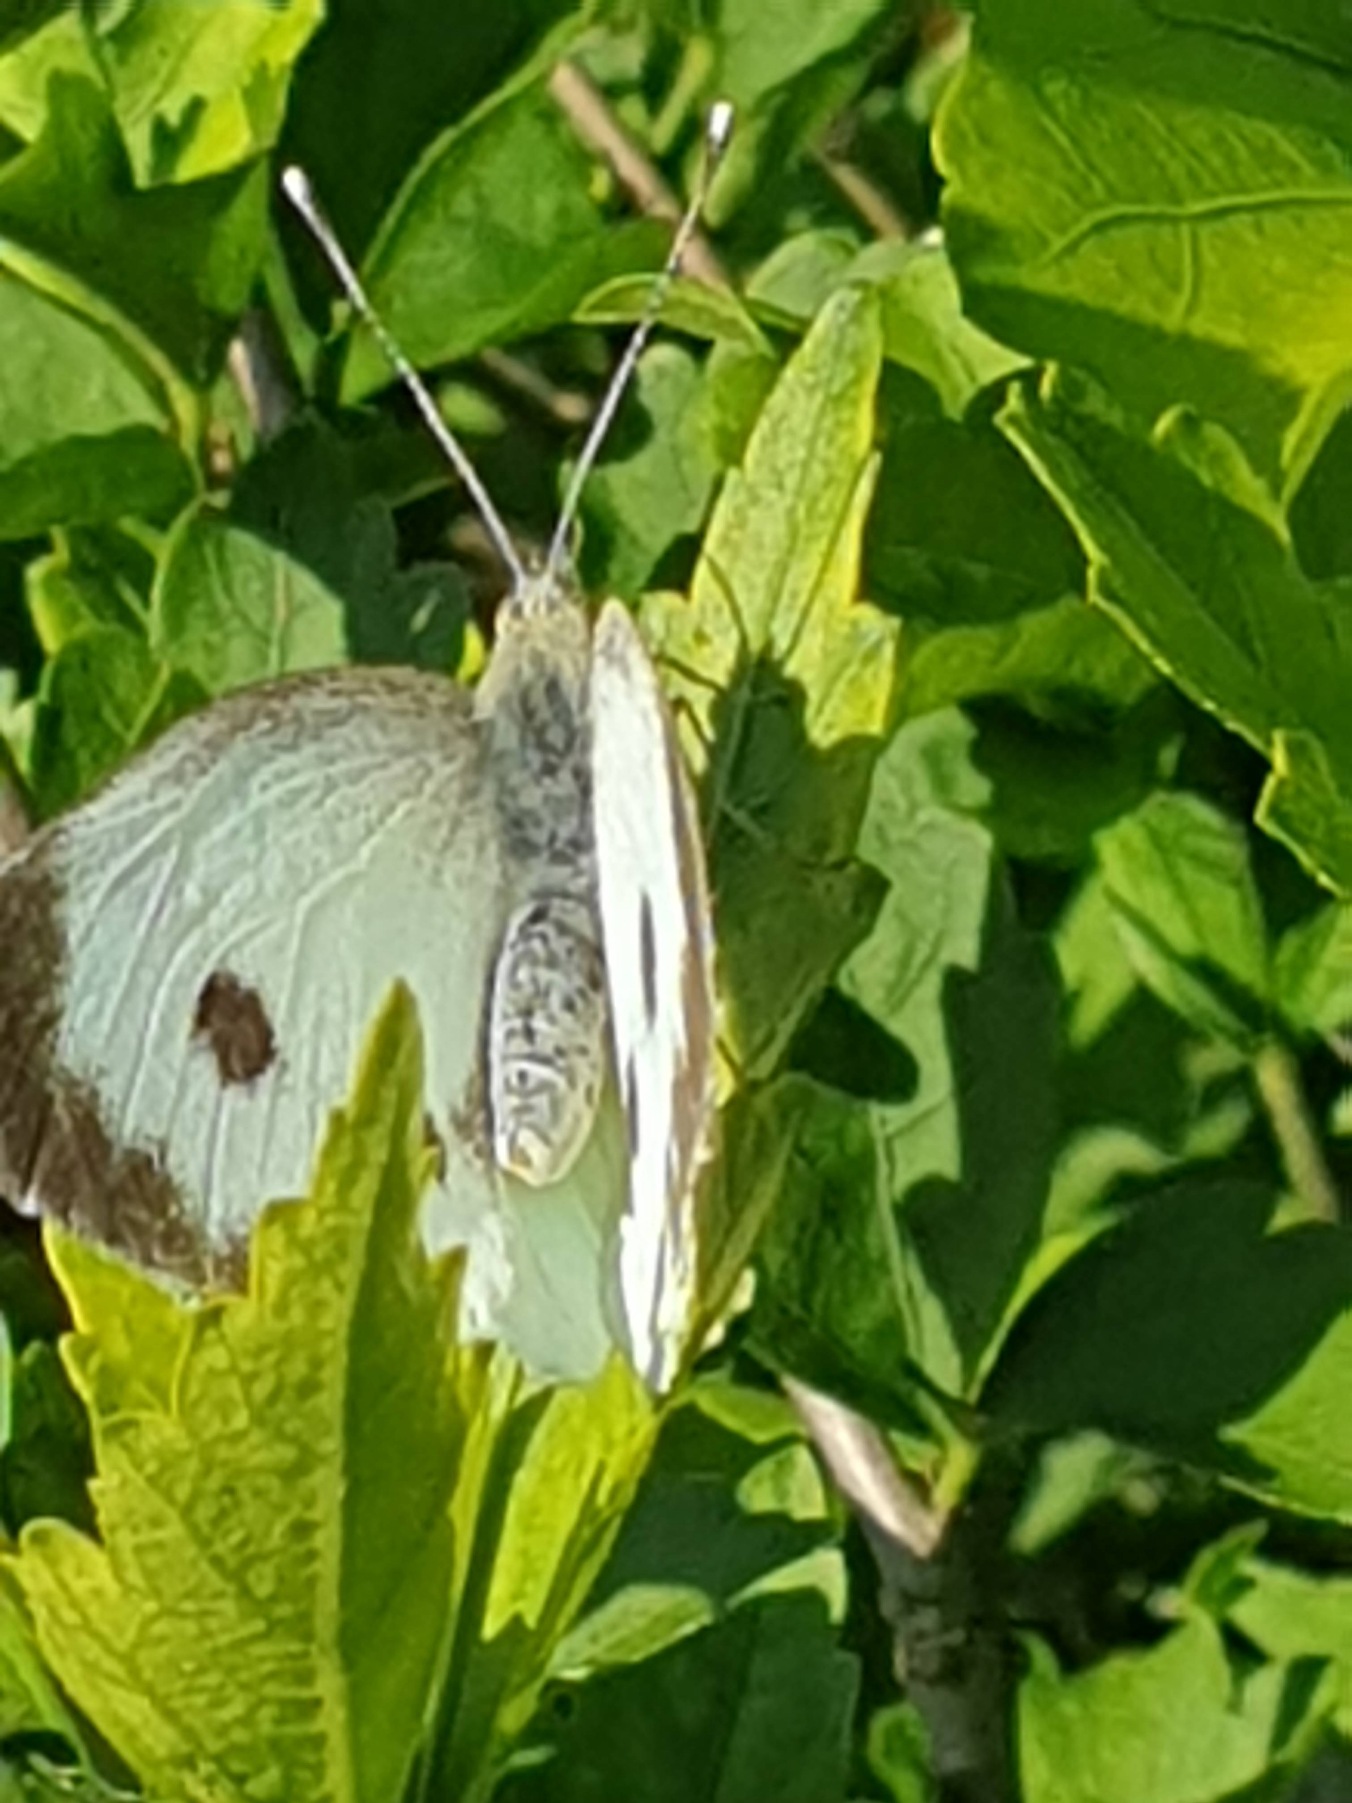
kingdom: Animalia
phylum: Arthropoda
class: Insecta
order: Lepidoptera
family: Pieridae
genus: Pieris
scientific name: Pieris brassicae
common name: Stor kålsommerfugl
